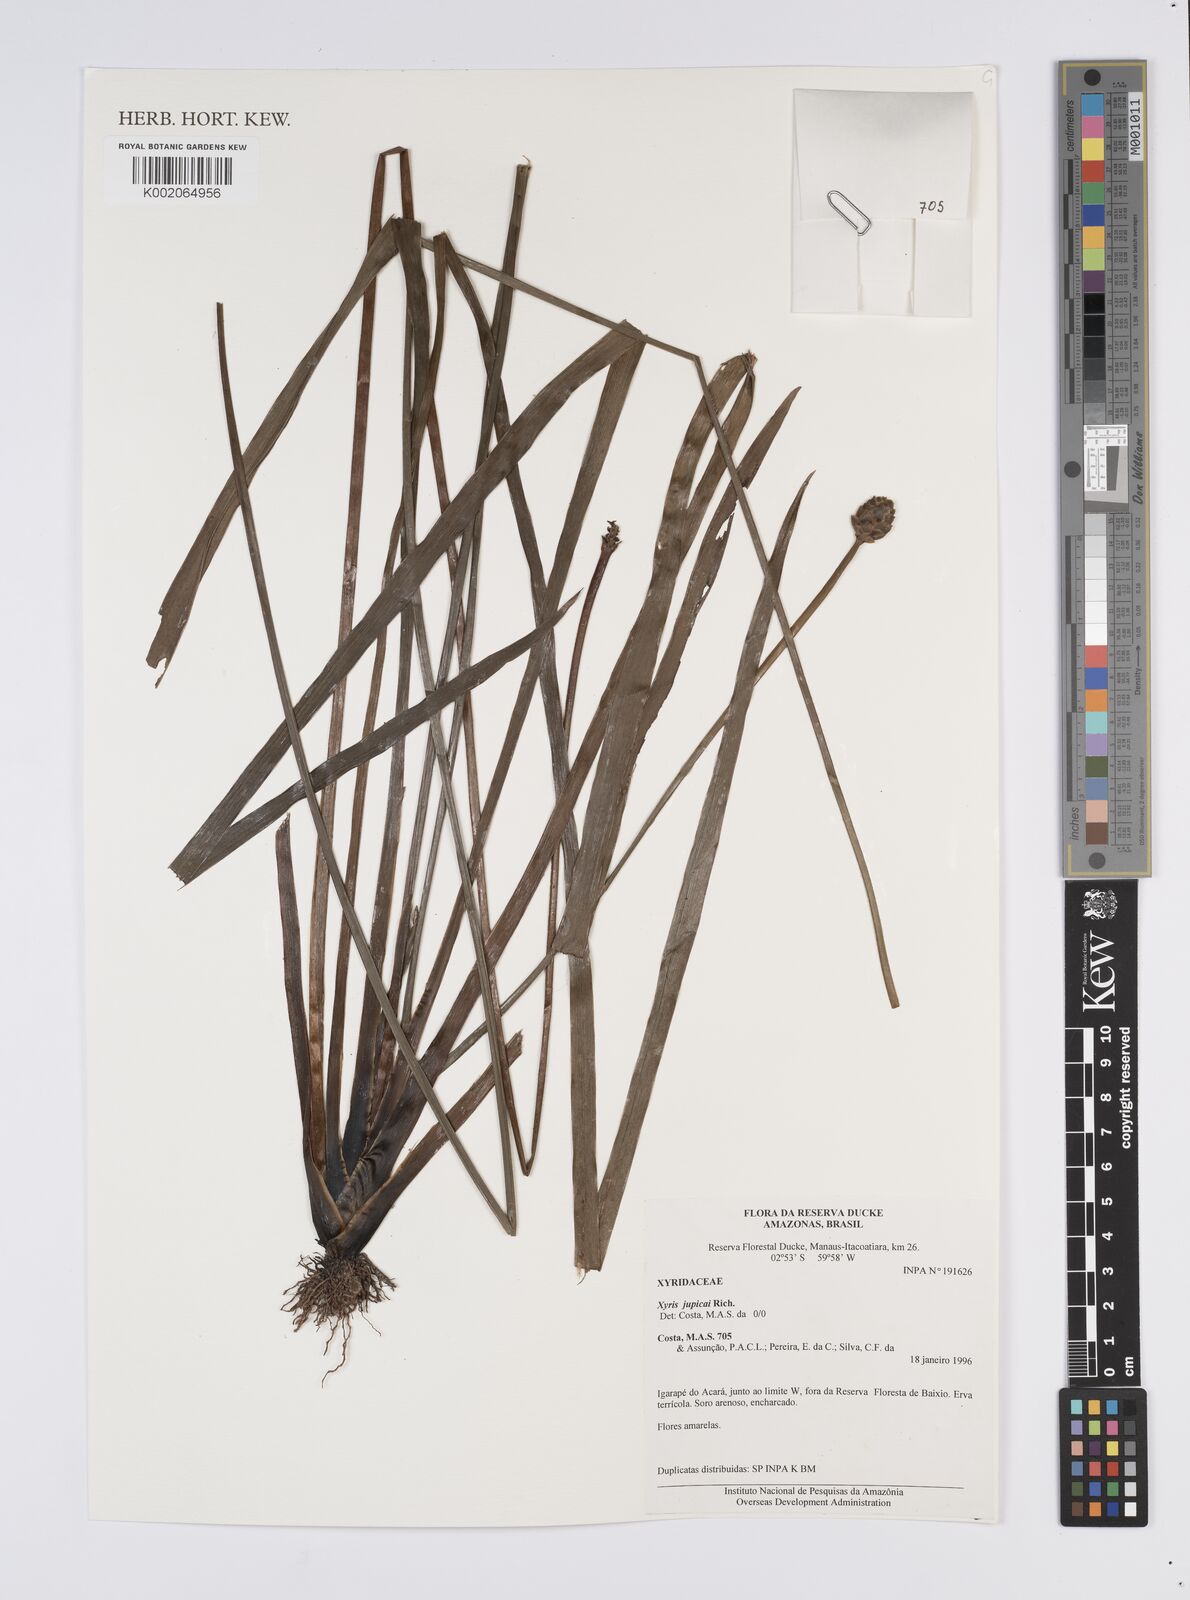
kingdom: Plantae
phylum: Tracheophyta
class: Liliopsida
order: Poales
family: Xyridaceae
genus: Xyris
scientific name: Xyris jupicai
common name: Richard's yelloweyed grass
